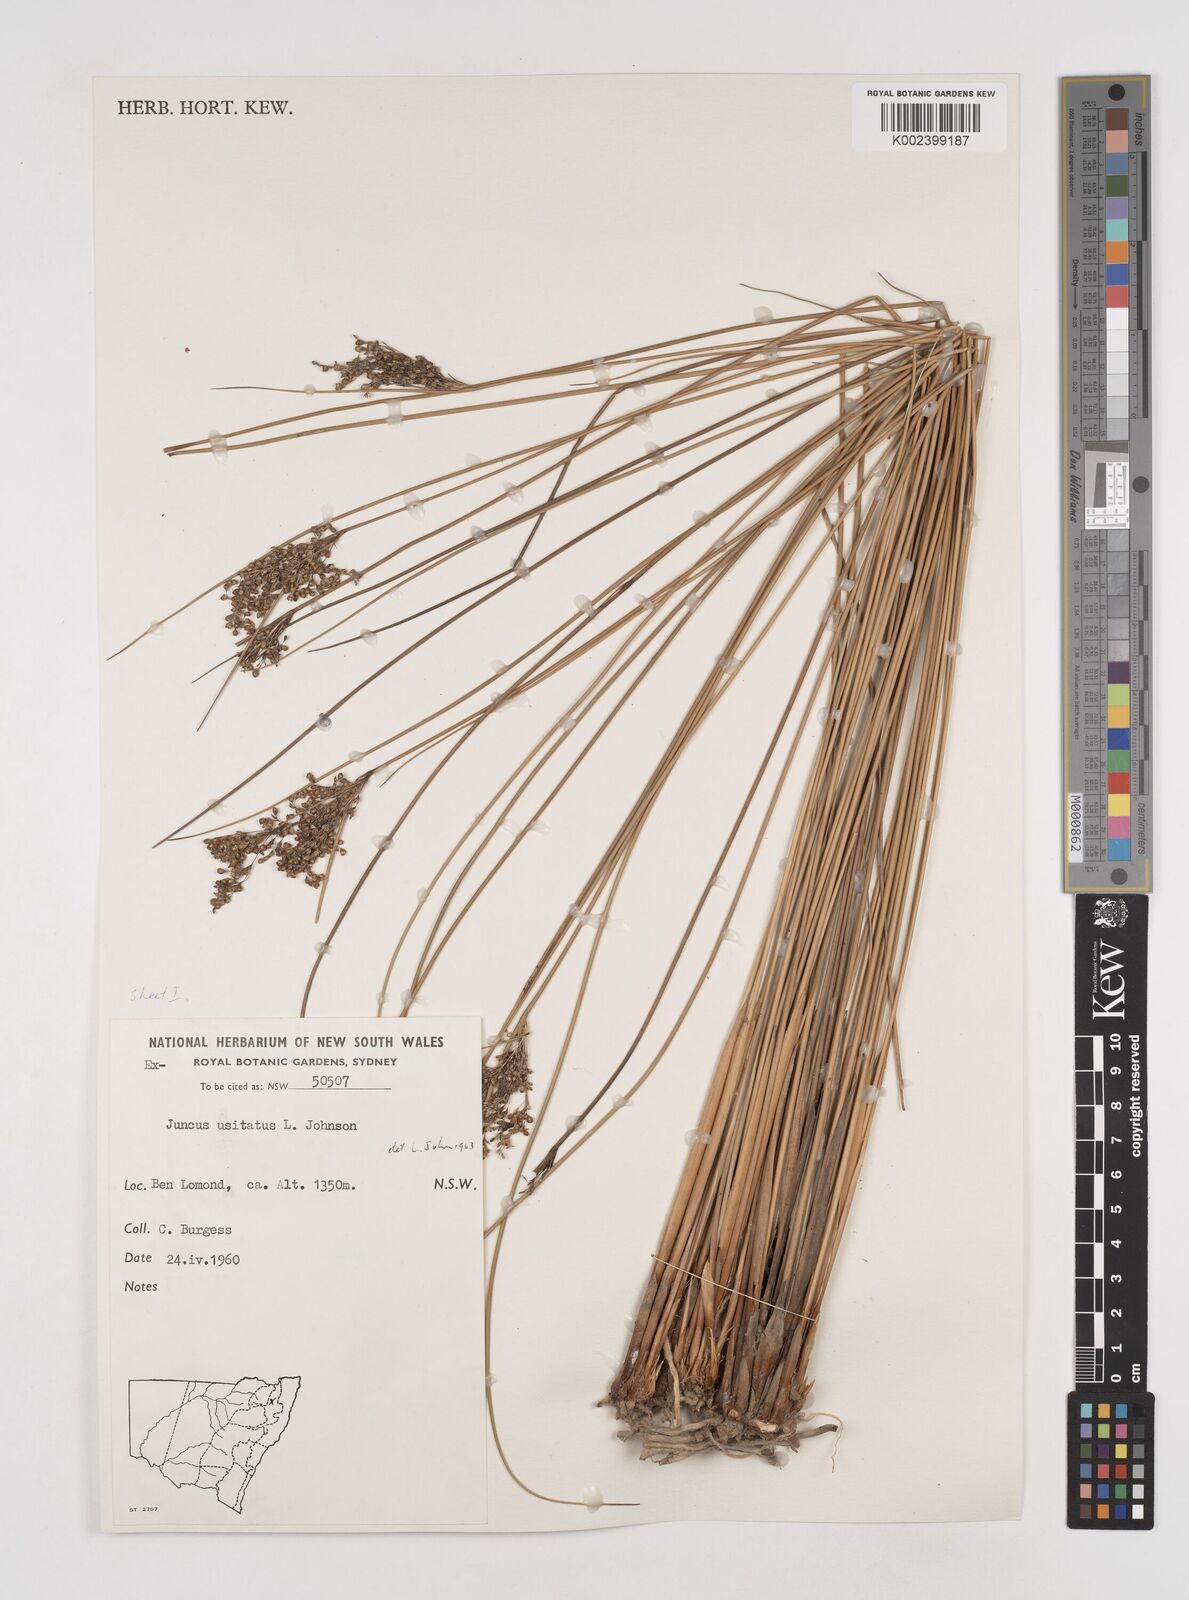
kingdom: Plantae
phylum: Tracheophyta
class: Liliopsida
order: Poales
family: Juncaceae
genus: Juncus
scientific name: Juncus usitatus
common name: Rush
